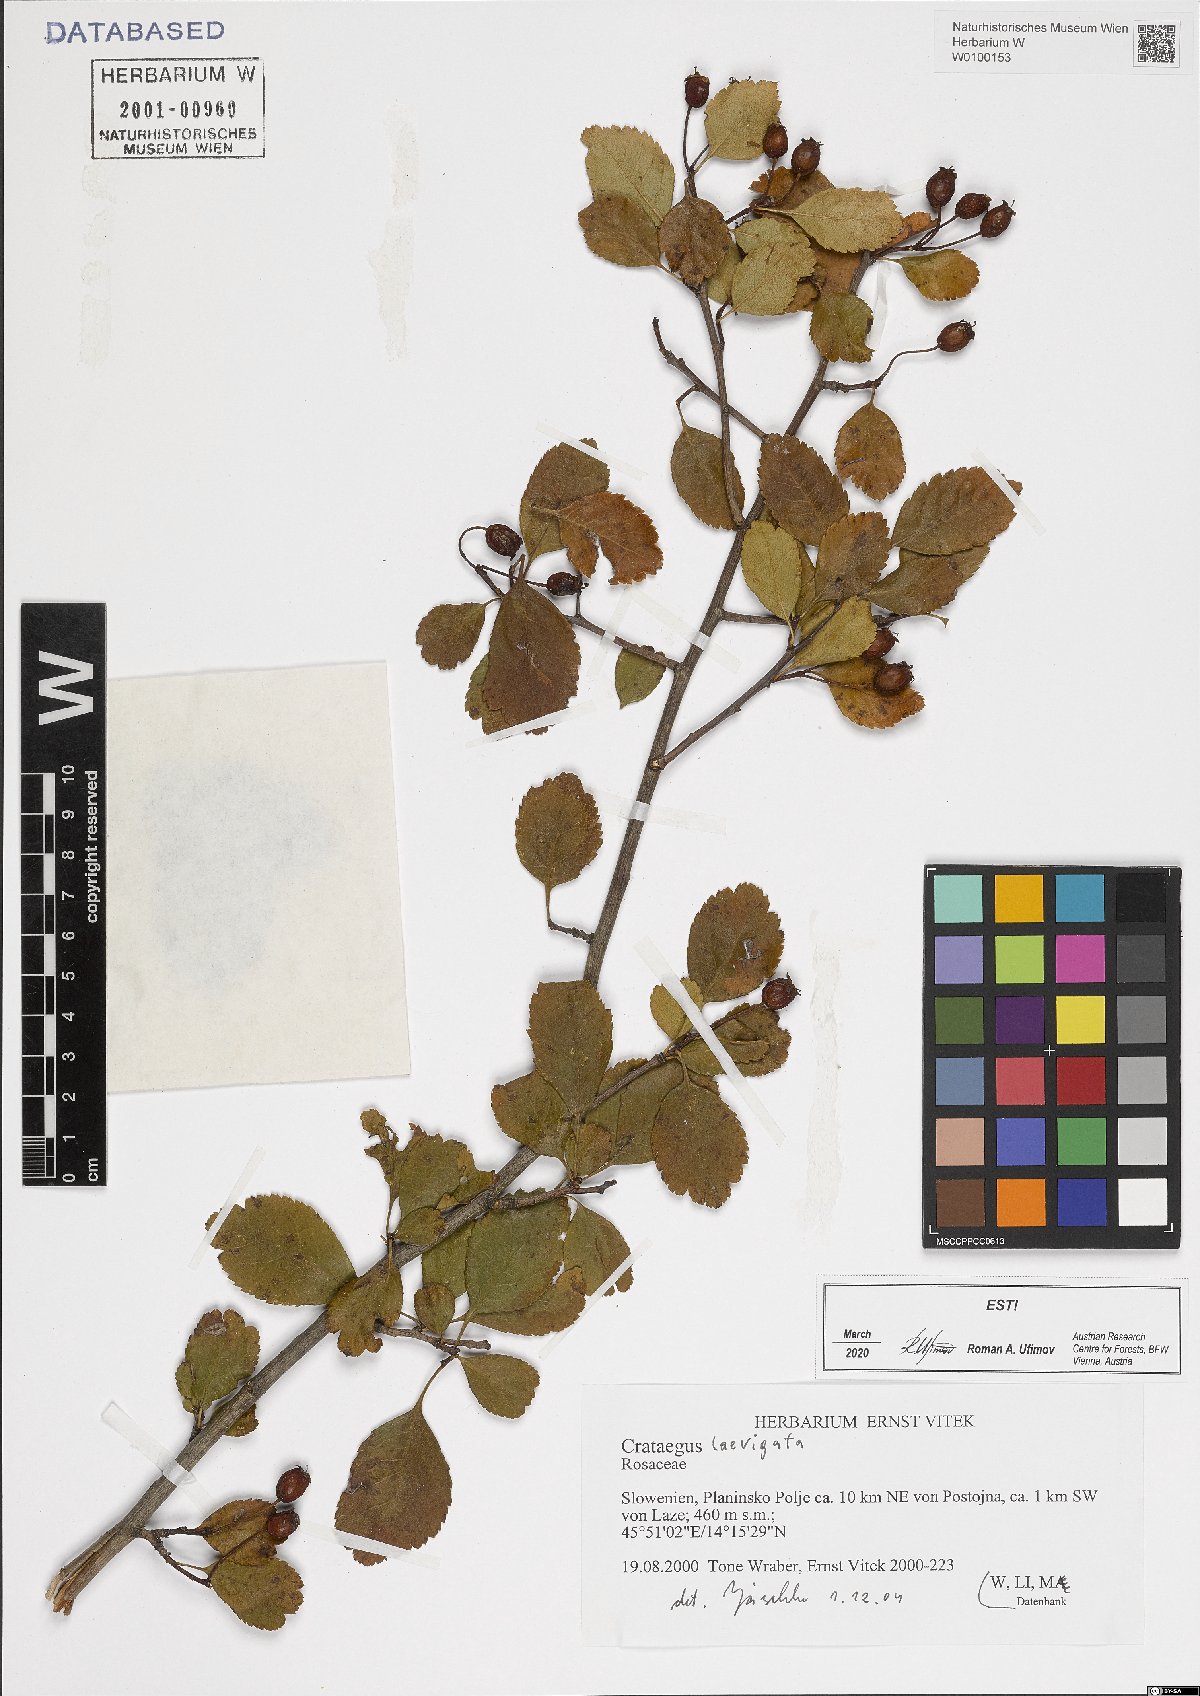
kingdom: Plantae
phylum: Tracheophyta
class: Magnoliopsida
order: Rosales
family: Rosaceae
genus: Crataegus
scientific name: Crataegus laevigata
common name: Midland hawthorn
